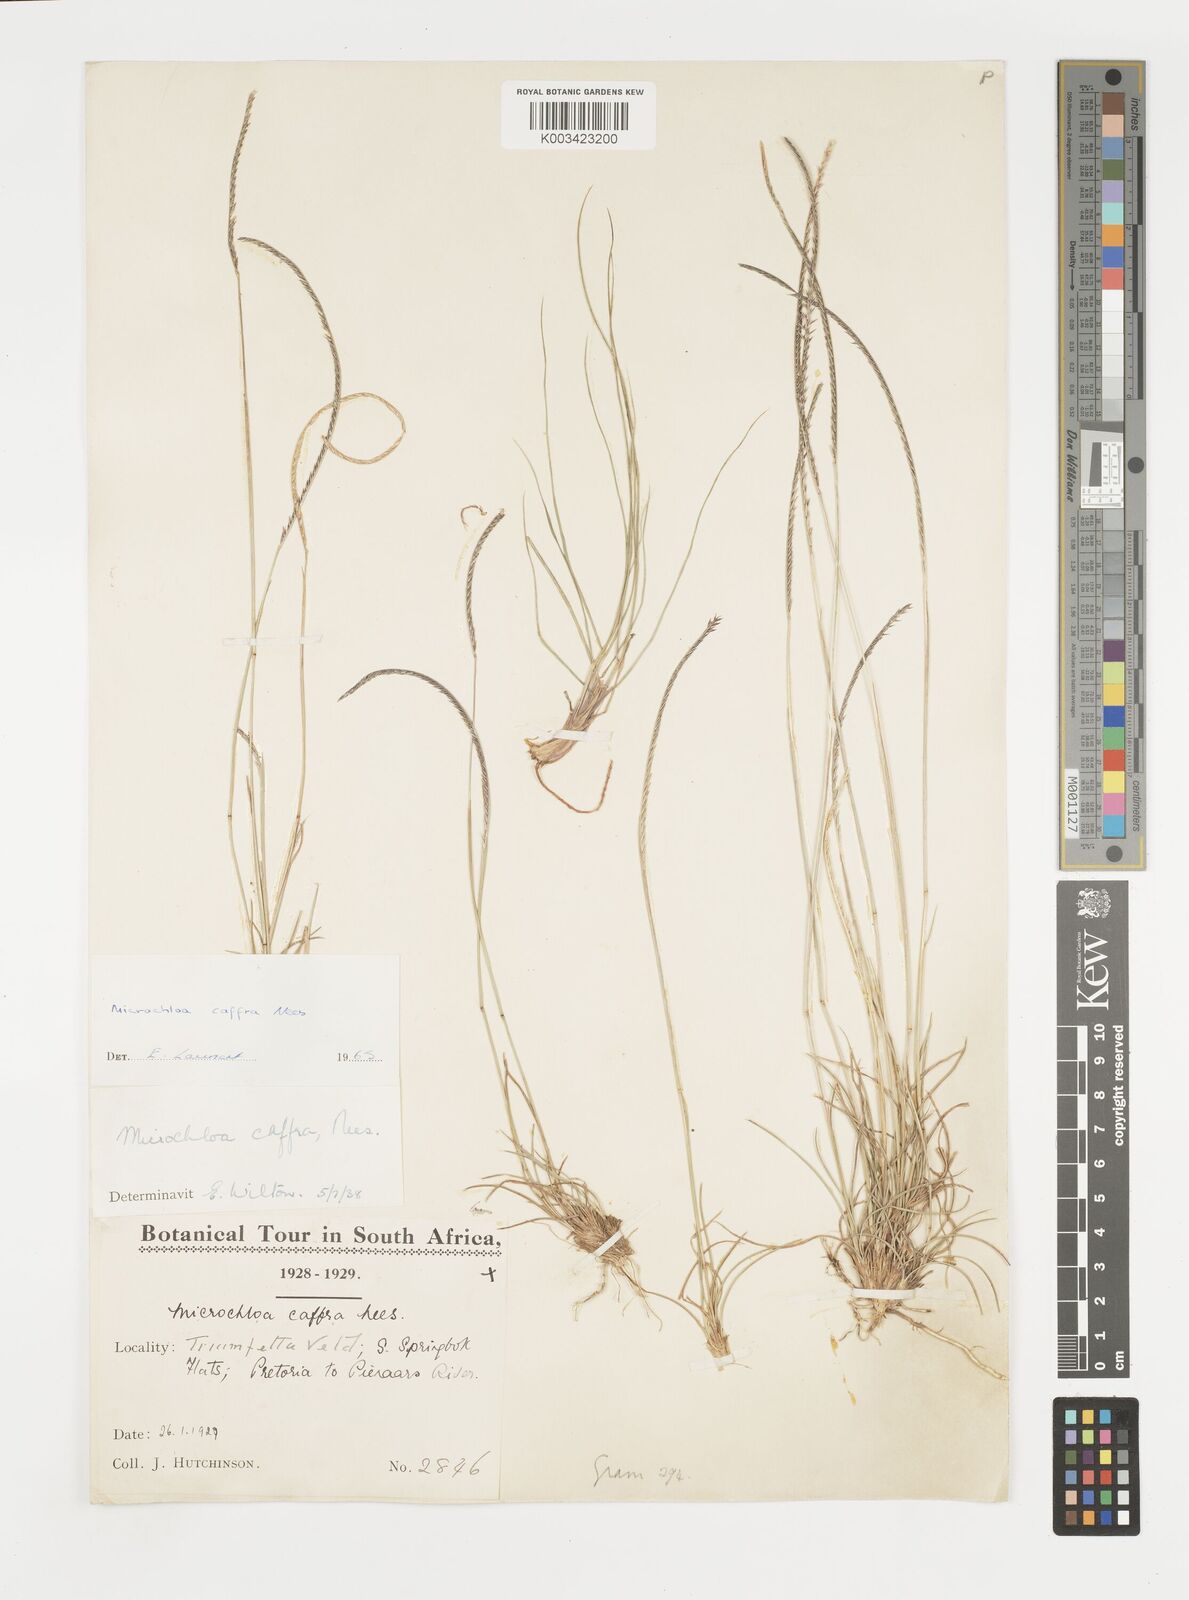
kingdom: Plantae
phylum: Tracheophyta
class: Liliopsida
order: Poales
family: Poaceae
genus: Microchloa
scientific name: Microchloa caffra
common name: Pincushion grass
